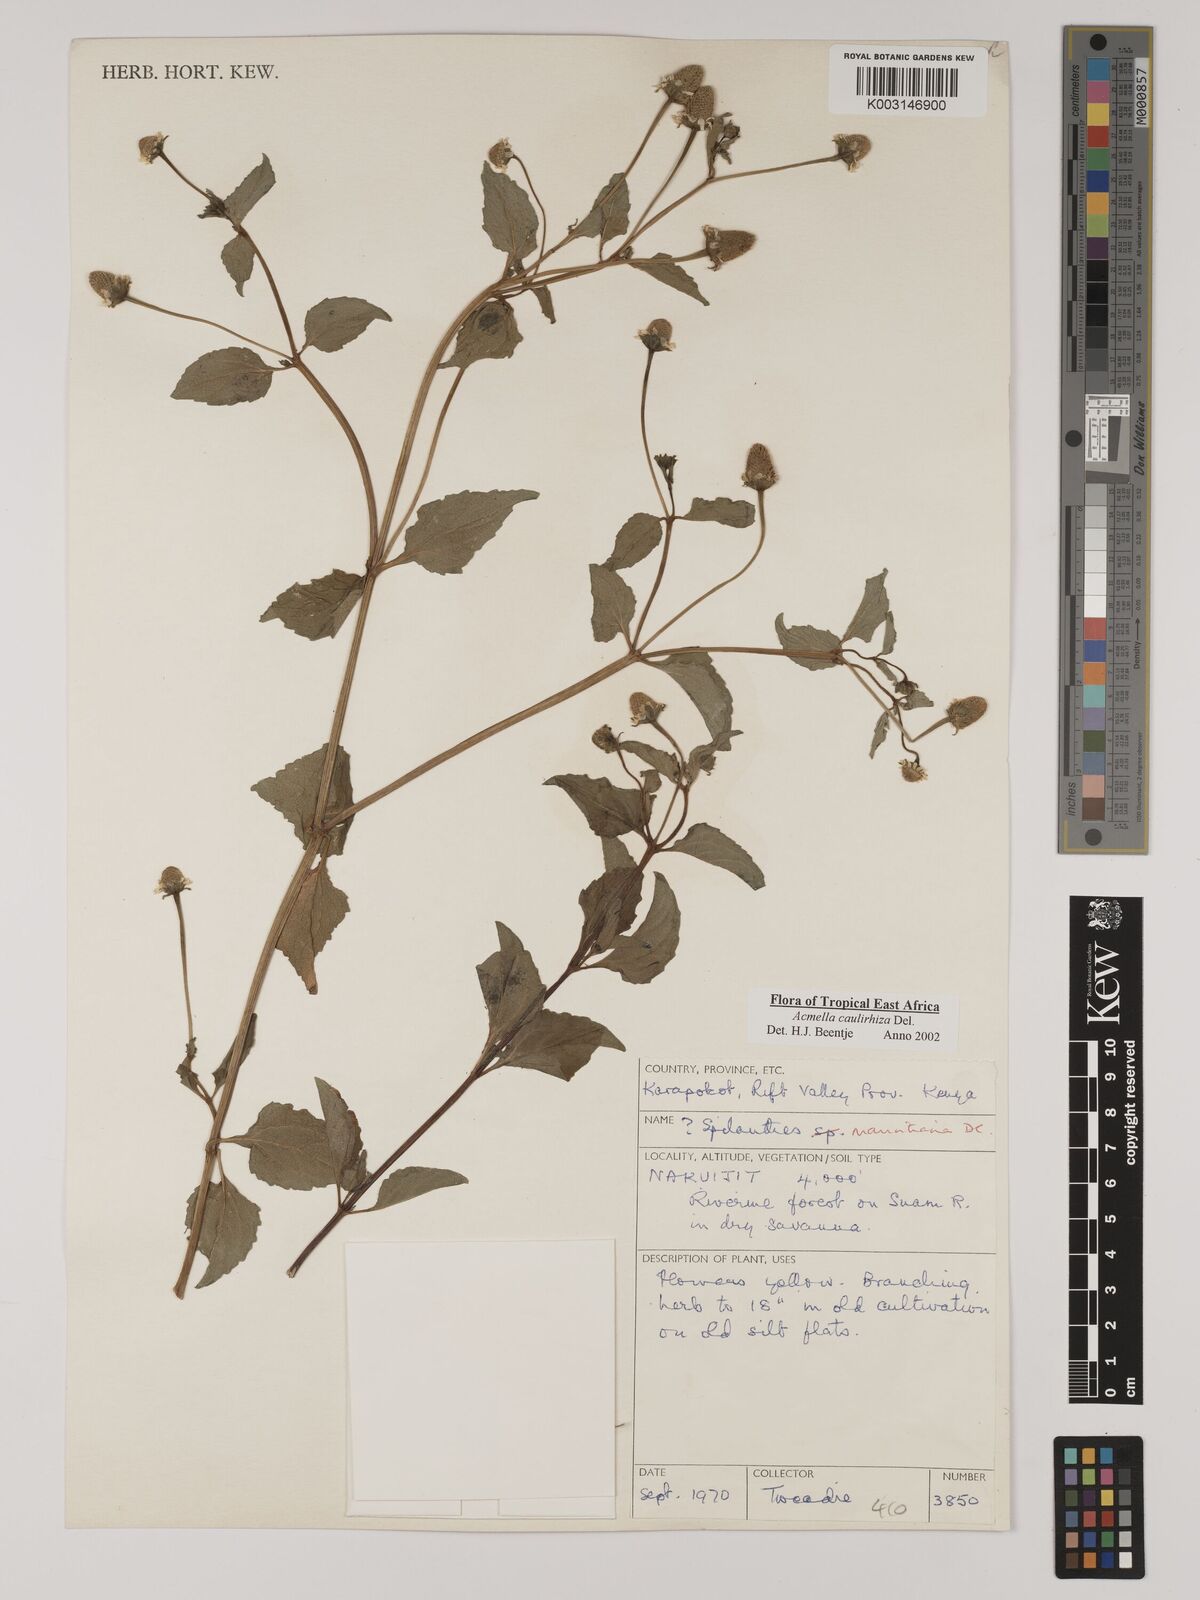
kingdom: Plantae
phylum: Tracheophyta
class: Magnoliopsida
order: Asterales
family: Asteraceae
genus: Acmella
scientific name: Acmella caulirhiza
